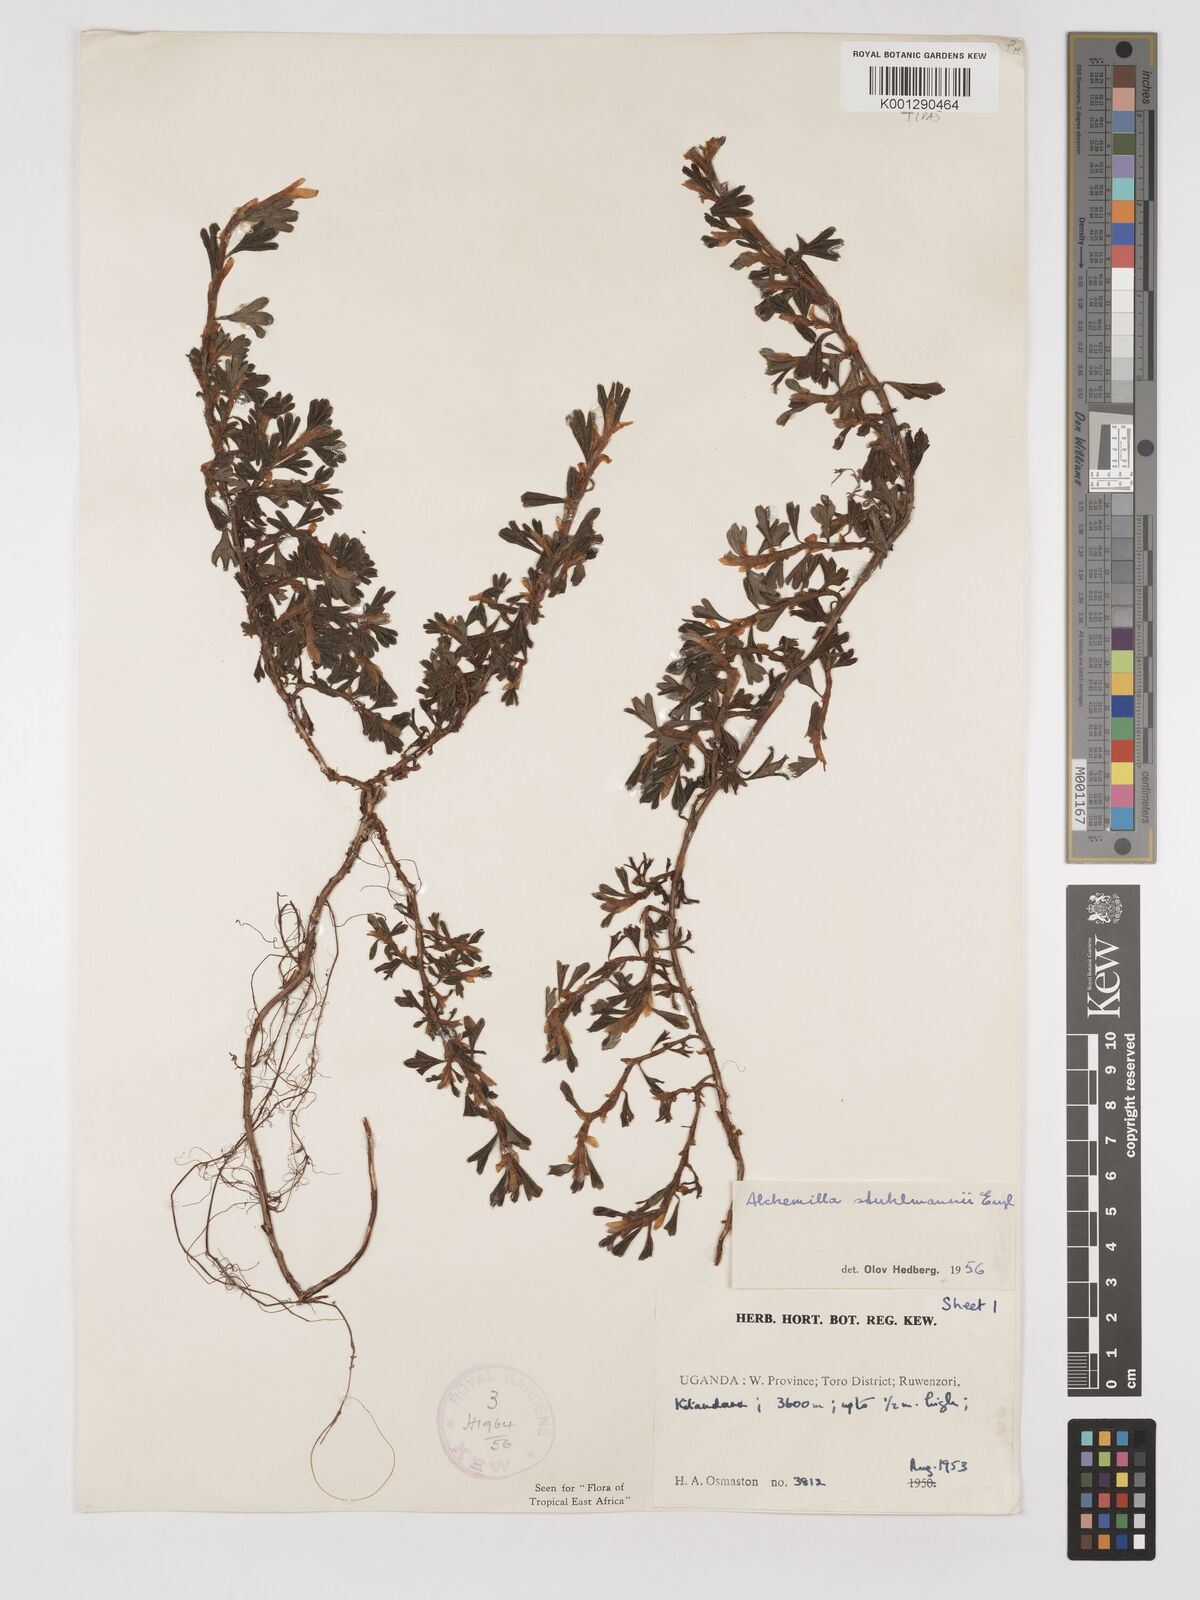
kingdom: Plantae
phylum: Tracheophyta
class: Magnoliopsida
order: Rosales
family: Rosaceae
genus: Alchemilla
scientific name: Alchemilla stuhlmannii
